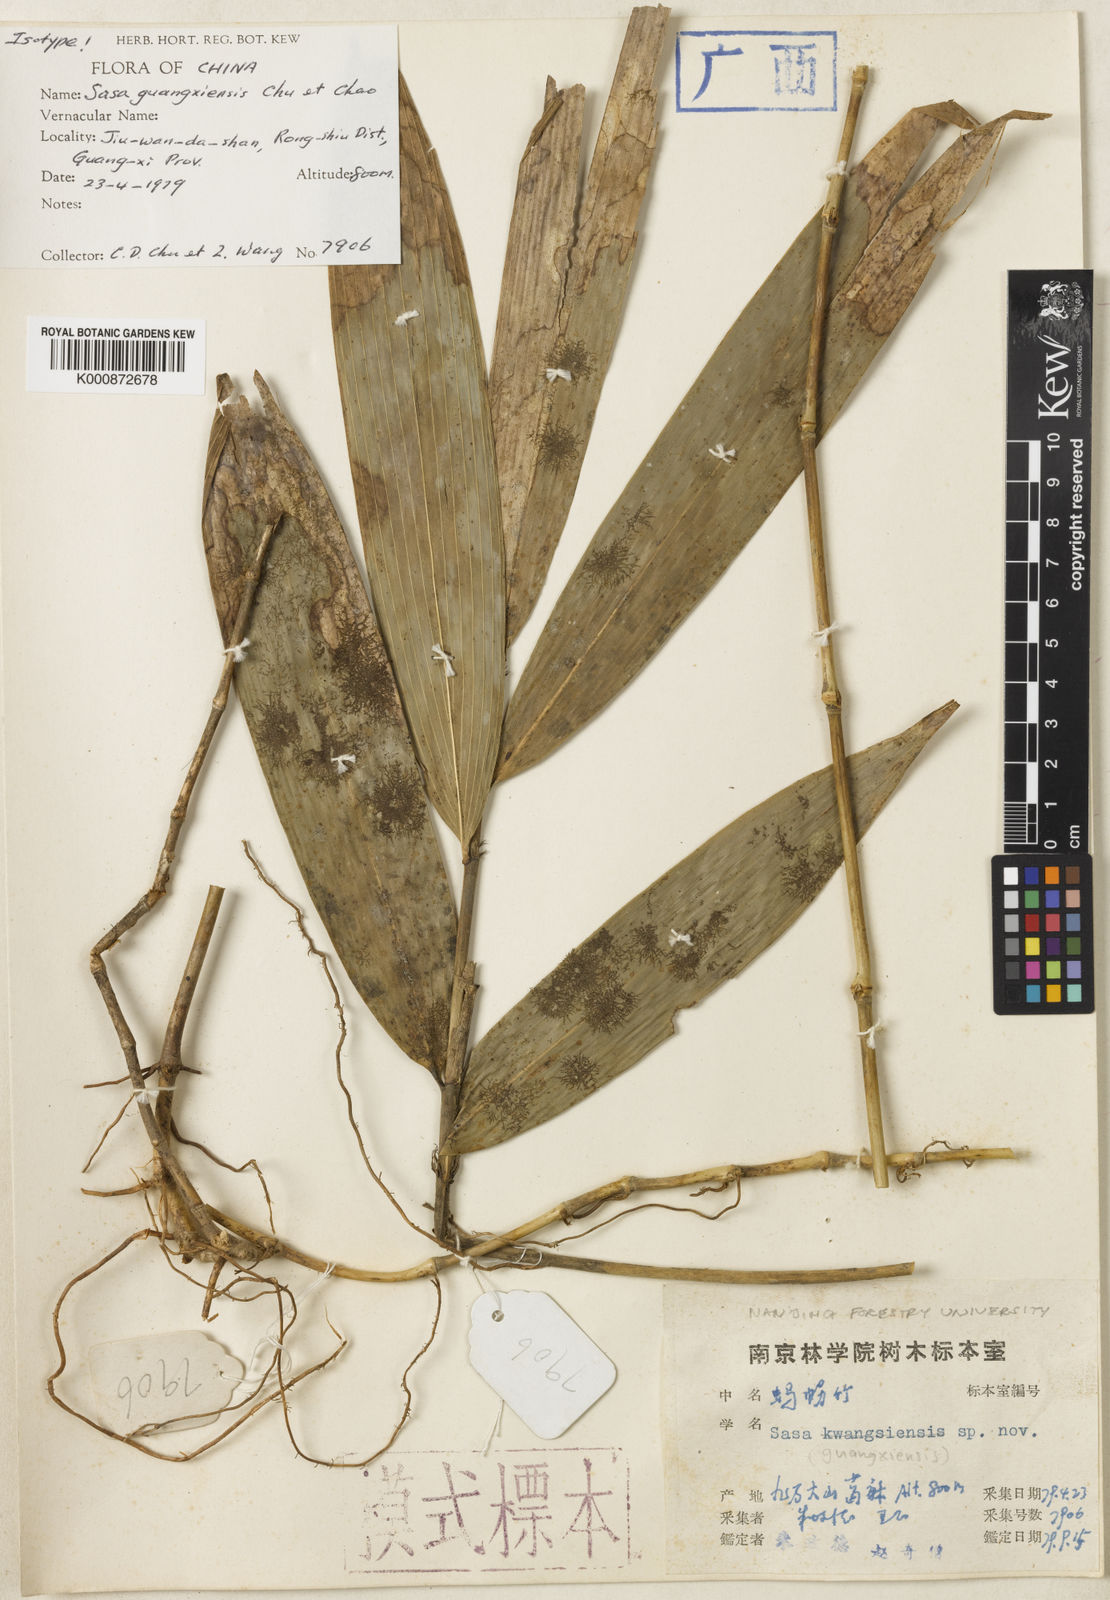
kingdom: Plantae
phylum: Tracheophyta
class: Liliopsida
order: Poales
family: Poaceae
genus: Sinosasa
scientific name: Sinosasa guangxiensis
